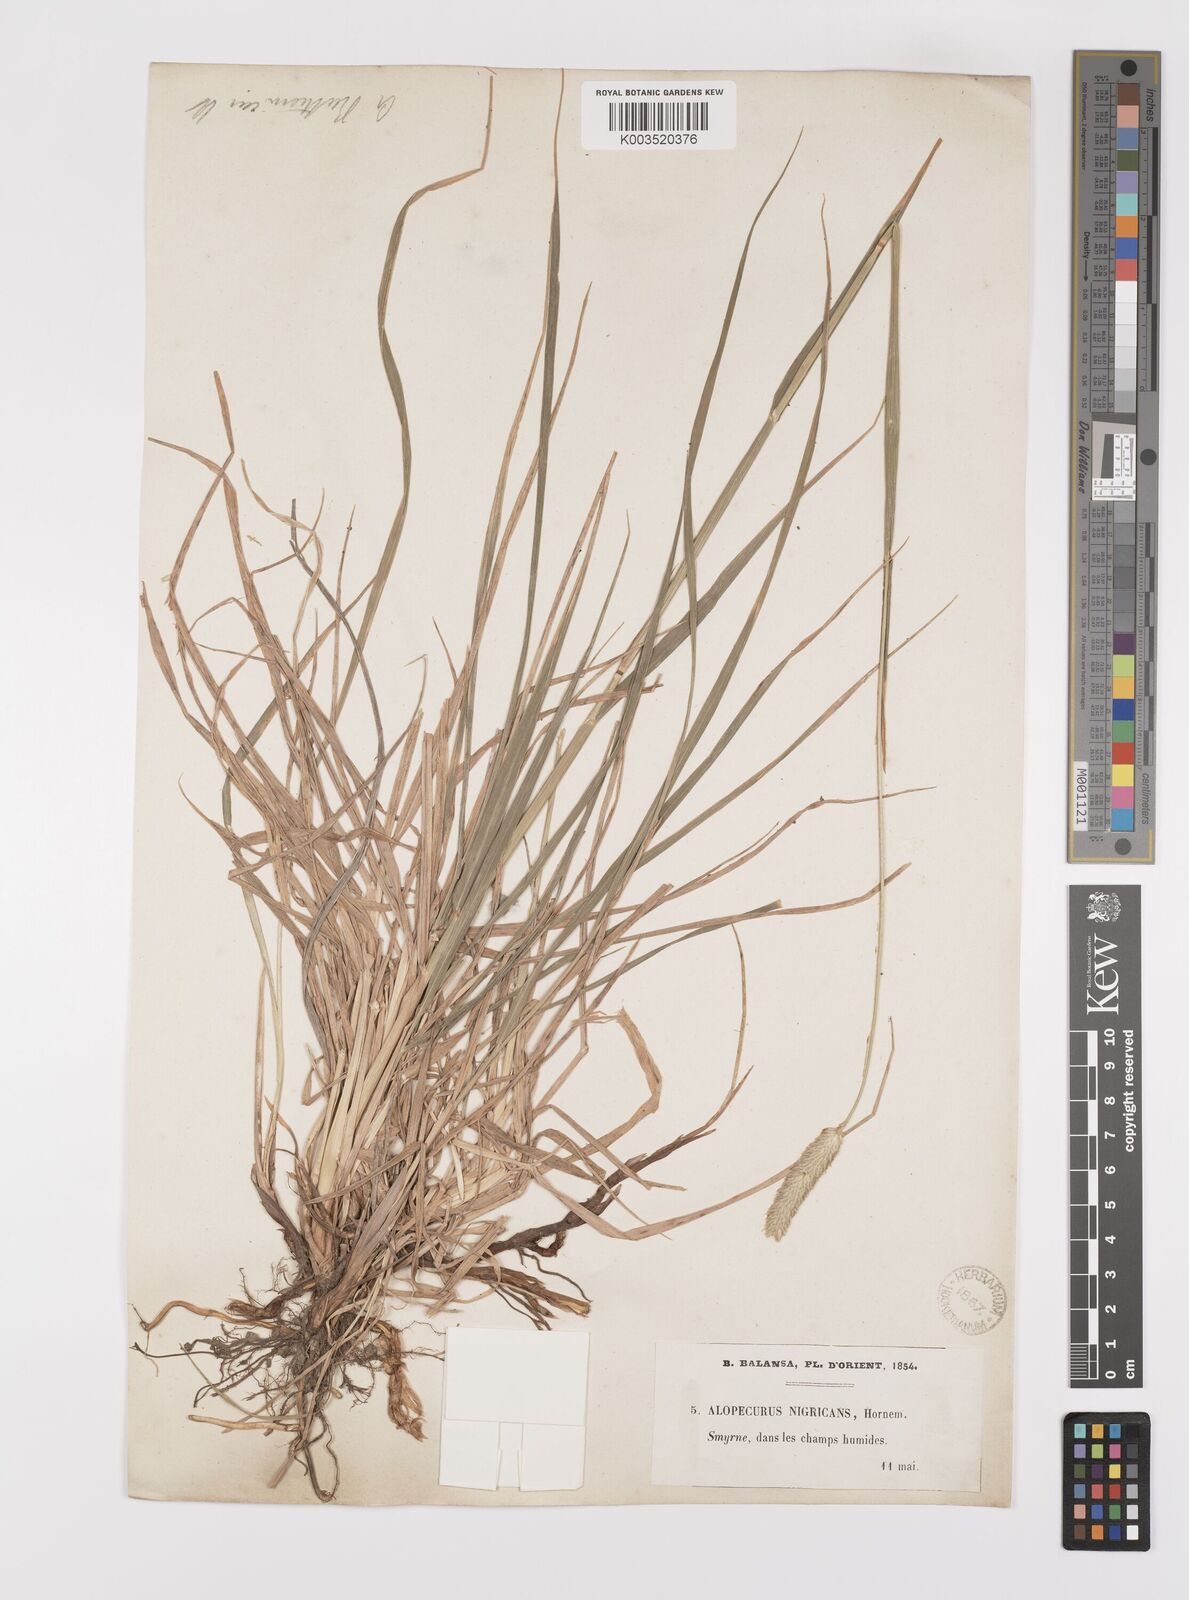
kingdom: Plantae
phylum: Tracheophyta
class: Liliopsida
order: Poales
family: Poaceae
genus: Alopecurus
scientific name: Alopecurus arundinaceus
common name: Creeping meadow foxtail
